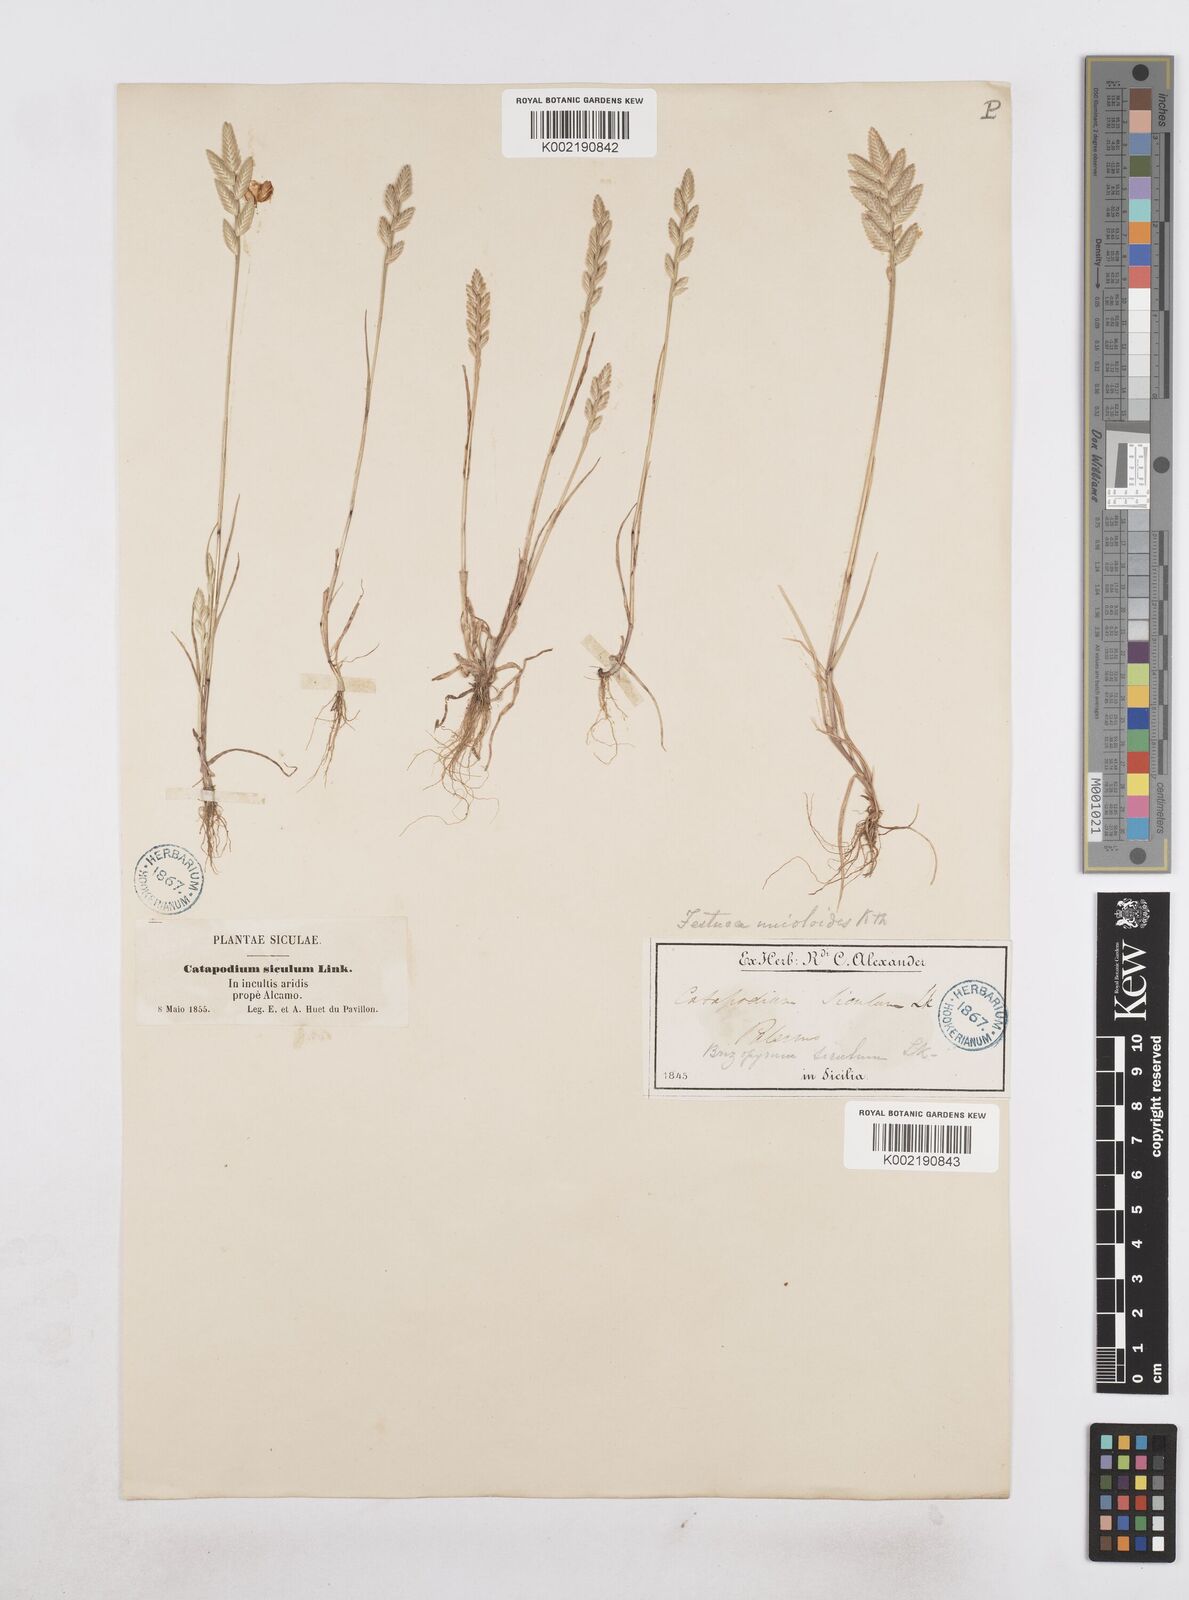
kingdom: Plantae
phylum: Tracheophyta
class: Liliopsida
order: Poales
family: Poaceae
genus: Desmazeria
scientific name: Desmazeria sicula
